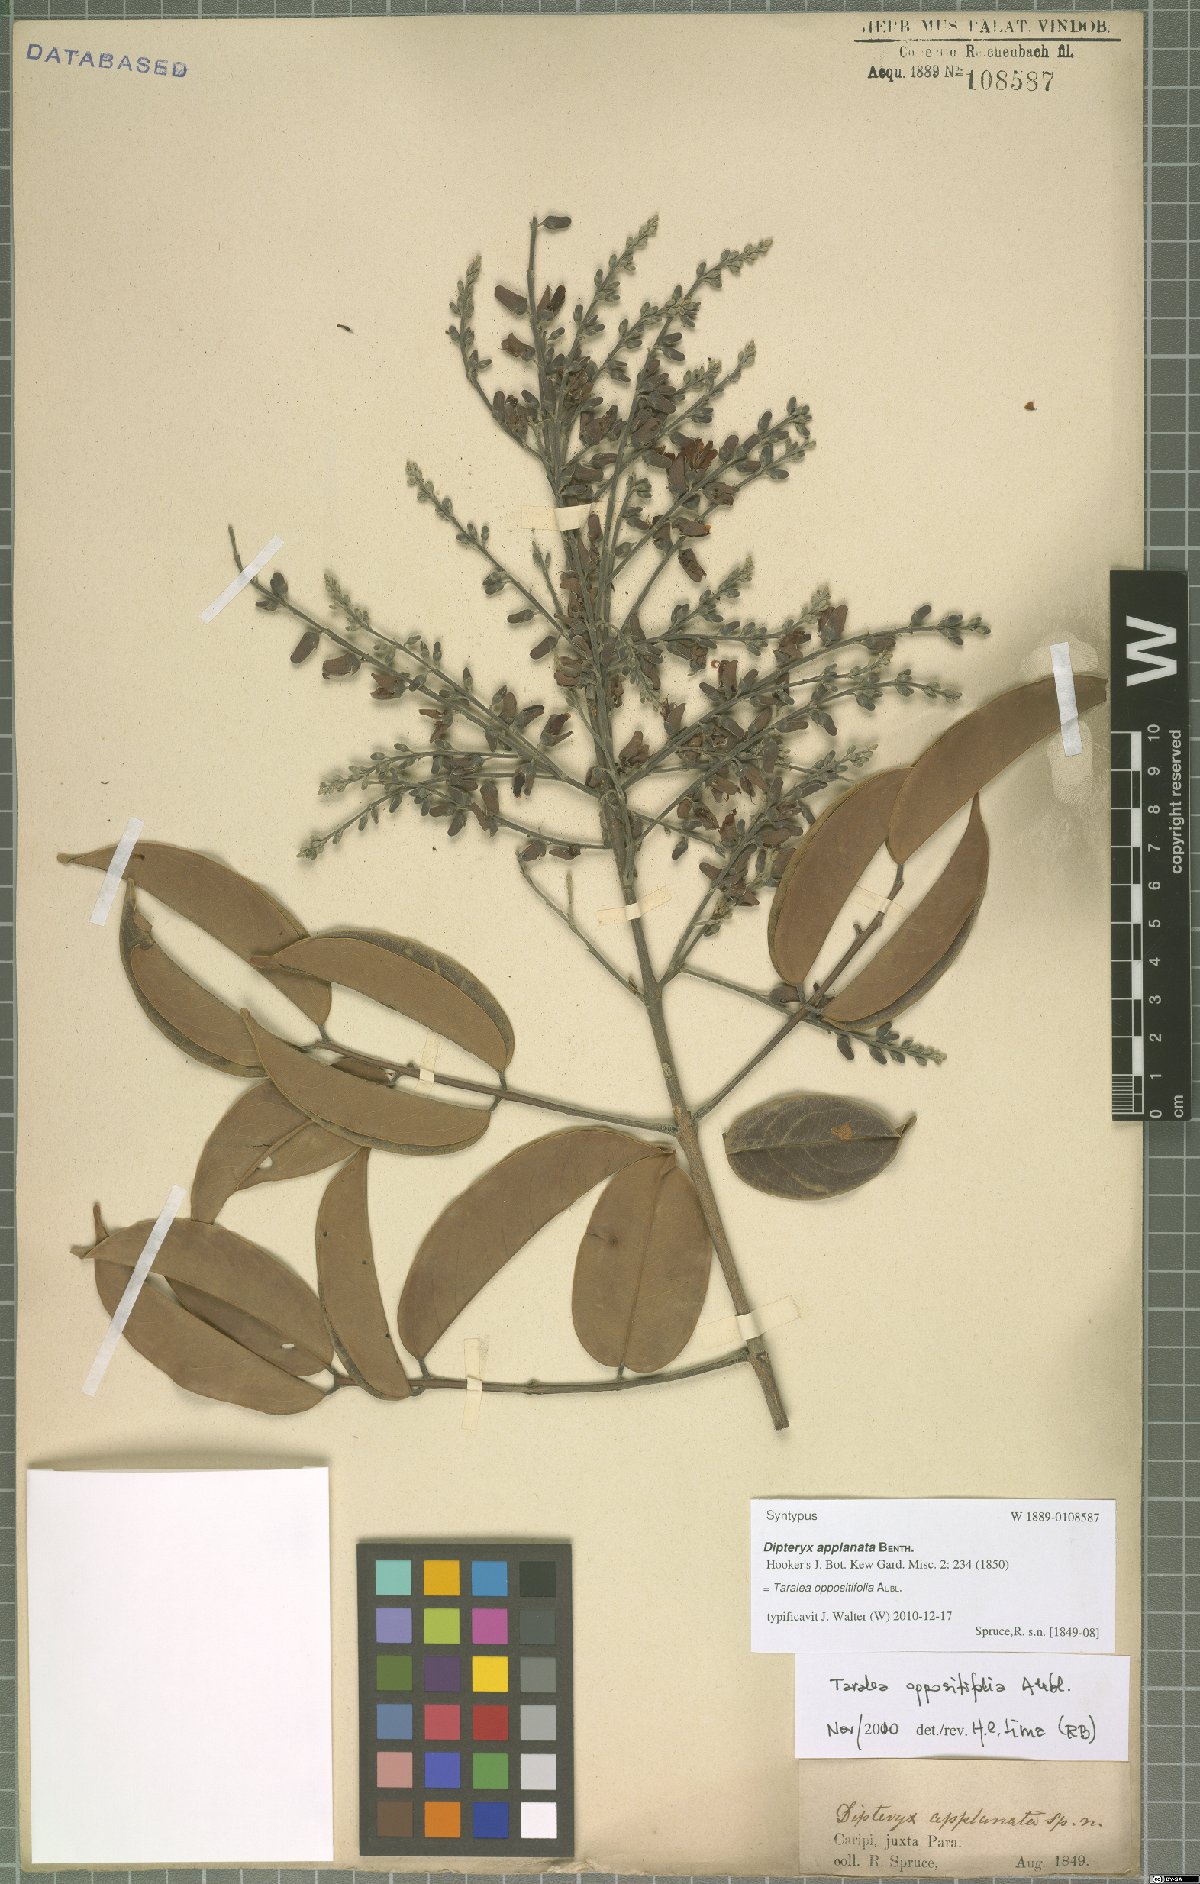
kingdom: Plantae
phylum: Tracheophyta
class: Magnoliopsida
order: Fabales
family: Fabaceae
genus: Taralea
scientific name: Taralea oppositifolia
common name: Tonka
